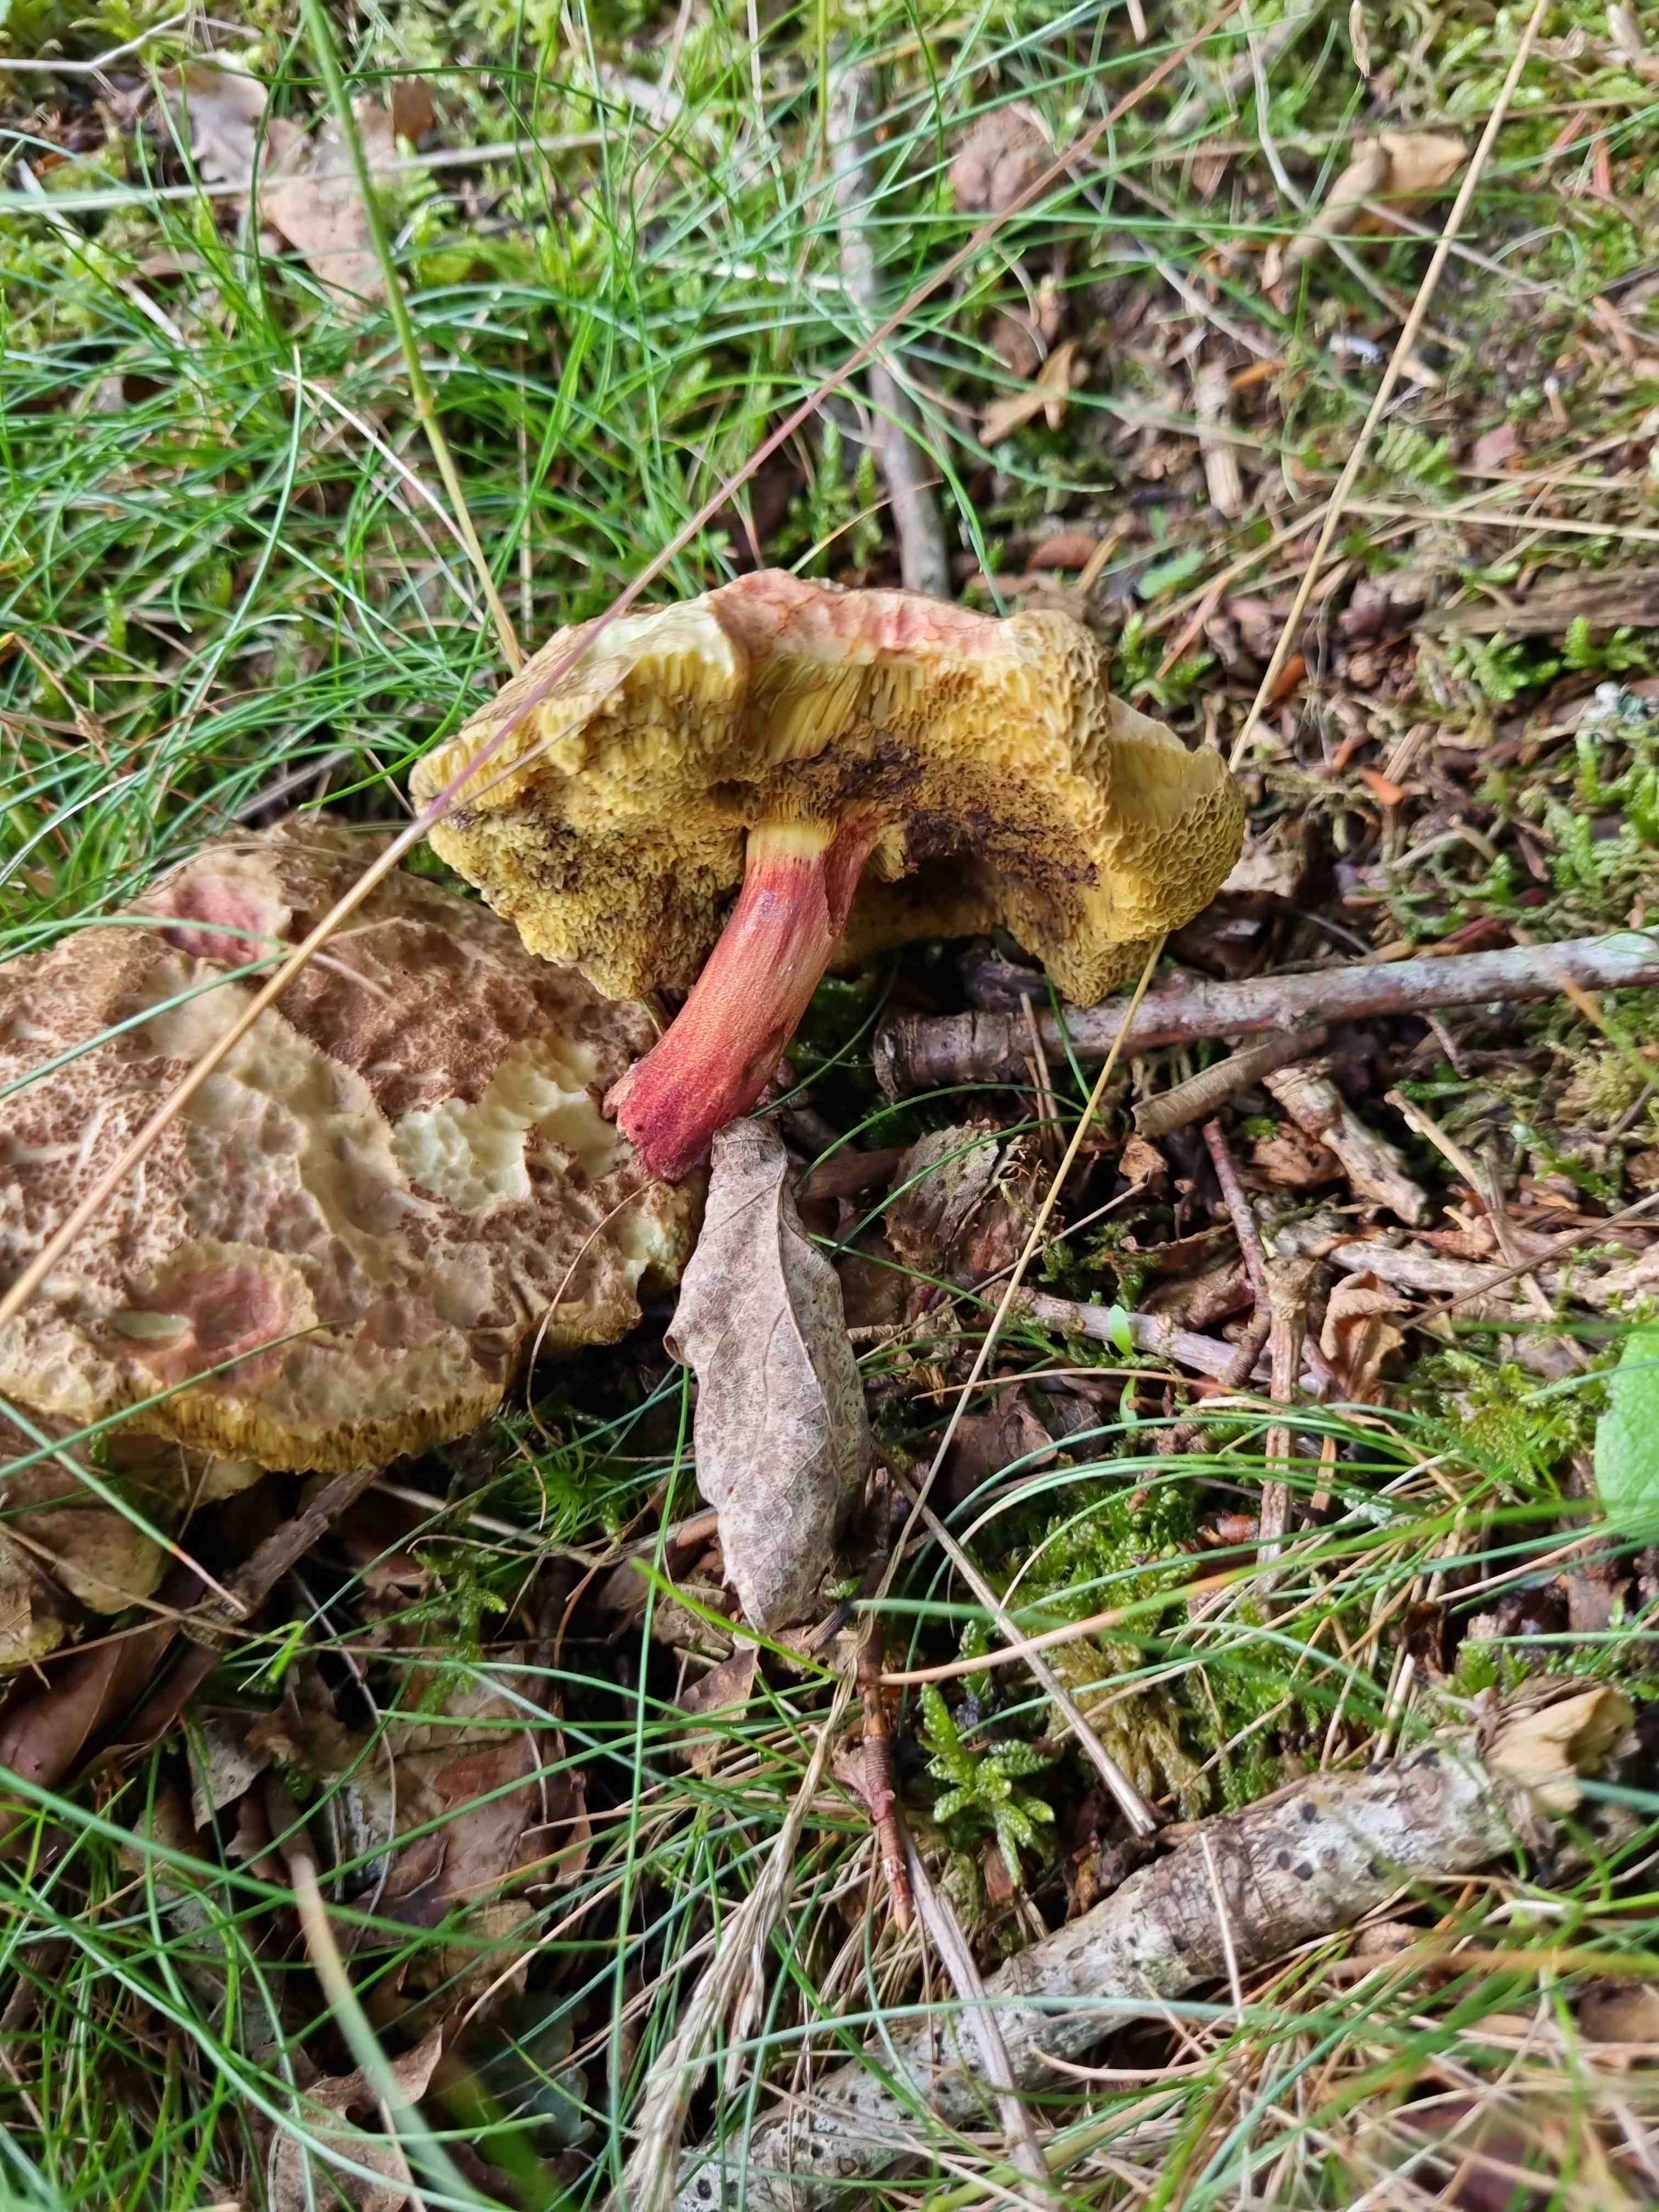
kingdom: Fungi
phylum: Basidiomycota
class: Agaricomycetes
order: Boletales
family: Boletaceae
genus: Xerocomellus
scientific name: Xerocomellus chrysenteron
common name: rødsprukken rørhat
